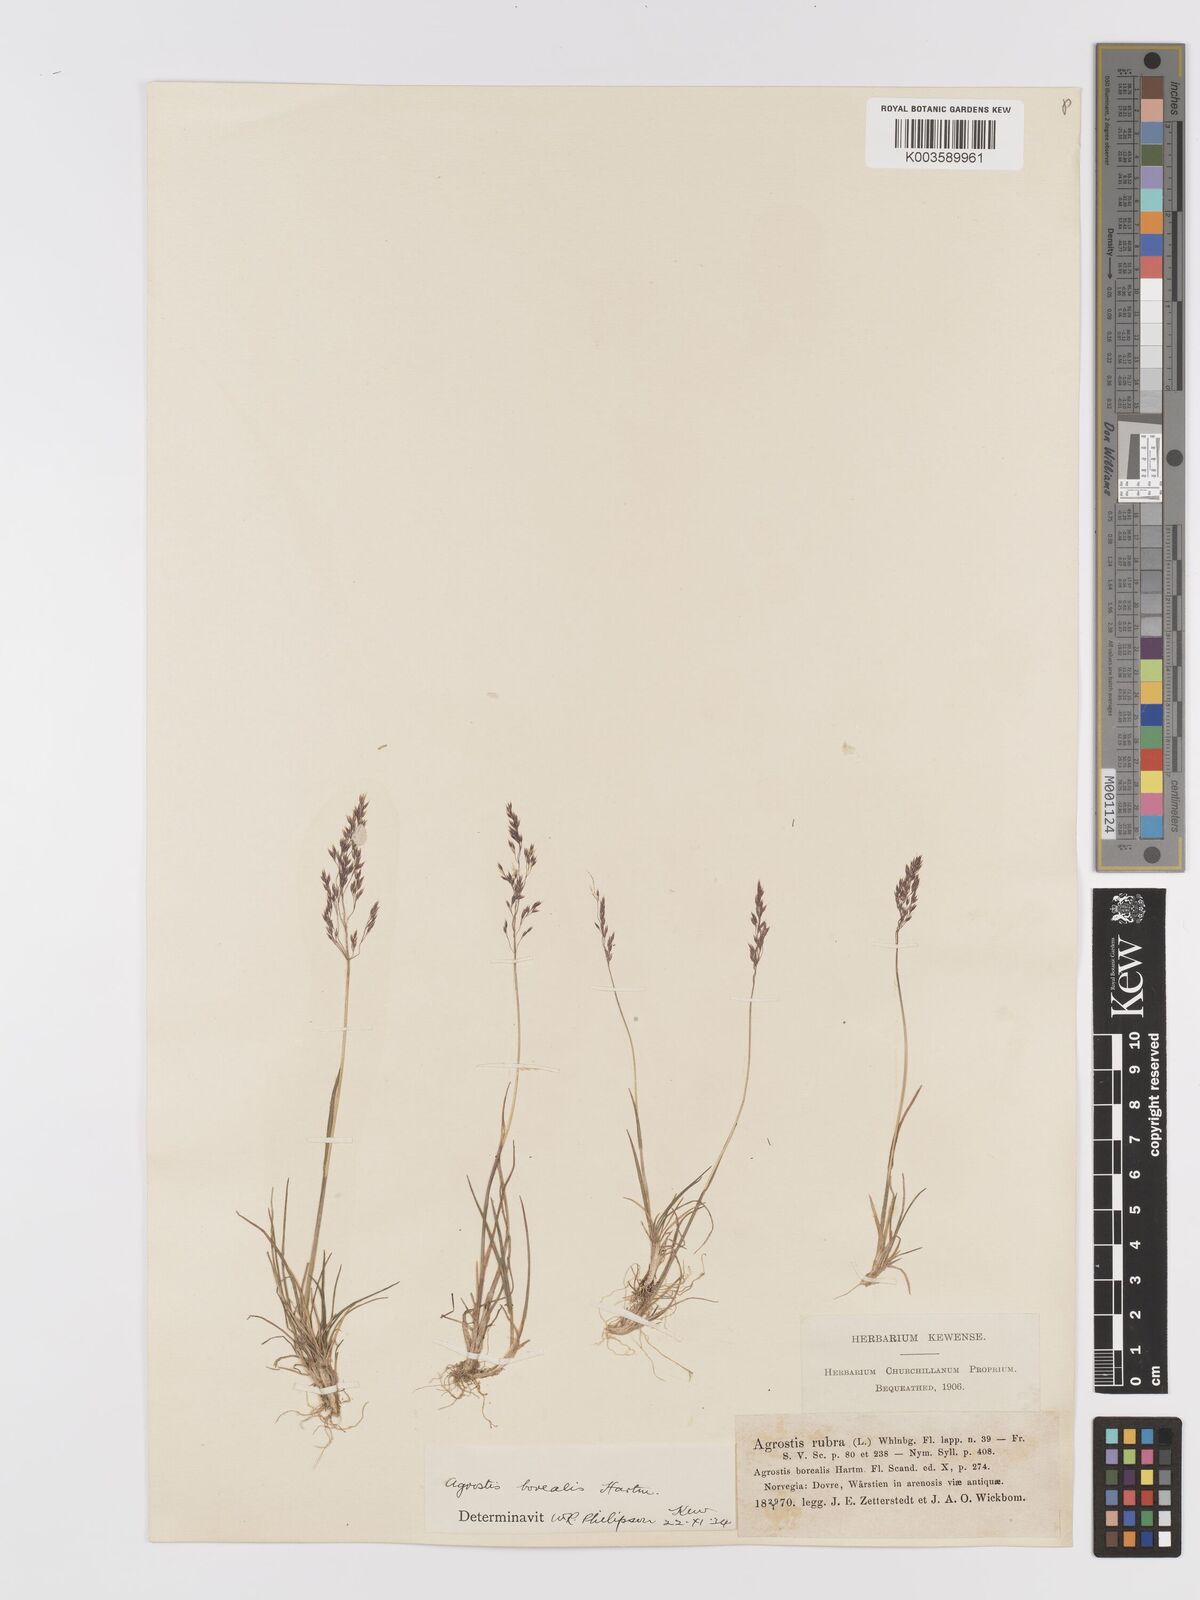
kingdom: Plantae
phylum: Tracheophyta
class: Liliopsida
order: Poales
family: Poaceae
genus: Agrostis
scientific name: Agrostis mertensii
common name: Northern bent
